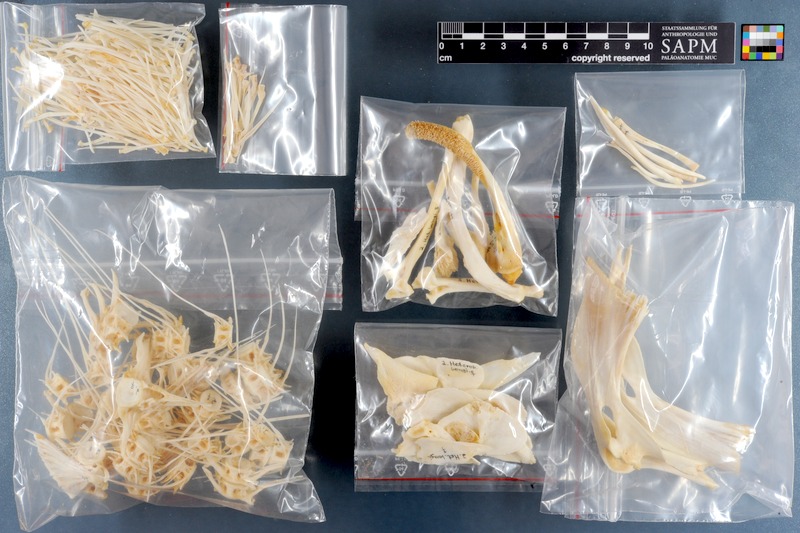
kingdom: Animalia
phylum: Chordata
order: Siluriformes
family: Clariidae
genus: Heterobranchus
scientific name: Heterobranchus longifilis
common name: Catfish
